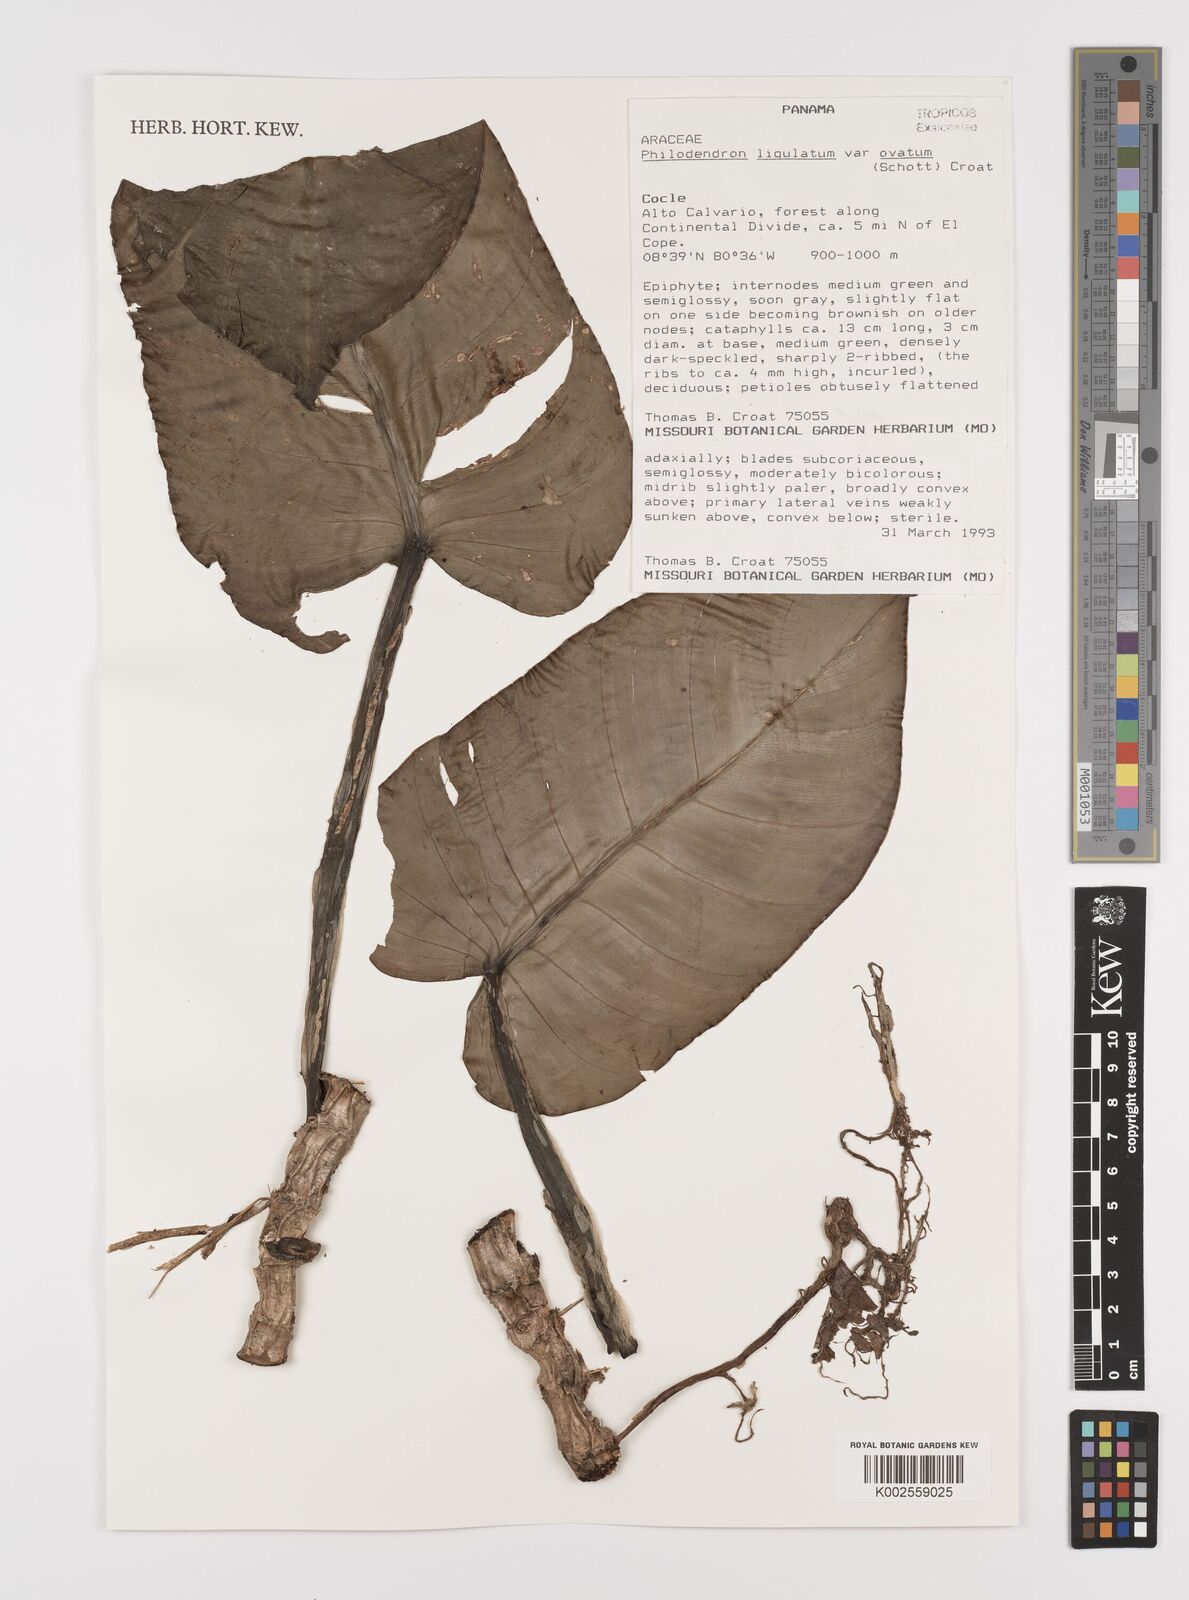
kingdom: Plantae
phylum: Tracheophyta
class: Liliopsida
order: Alismatales
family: Araceae
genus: Philodendron
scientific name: Philodendron ligulatum
